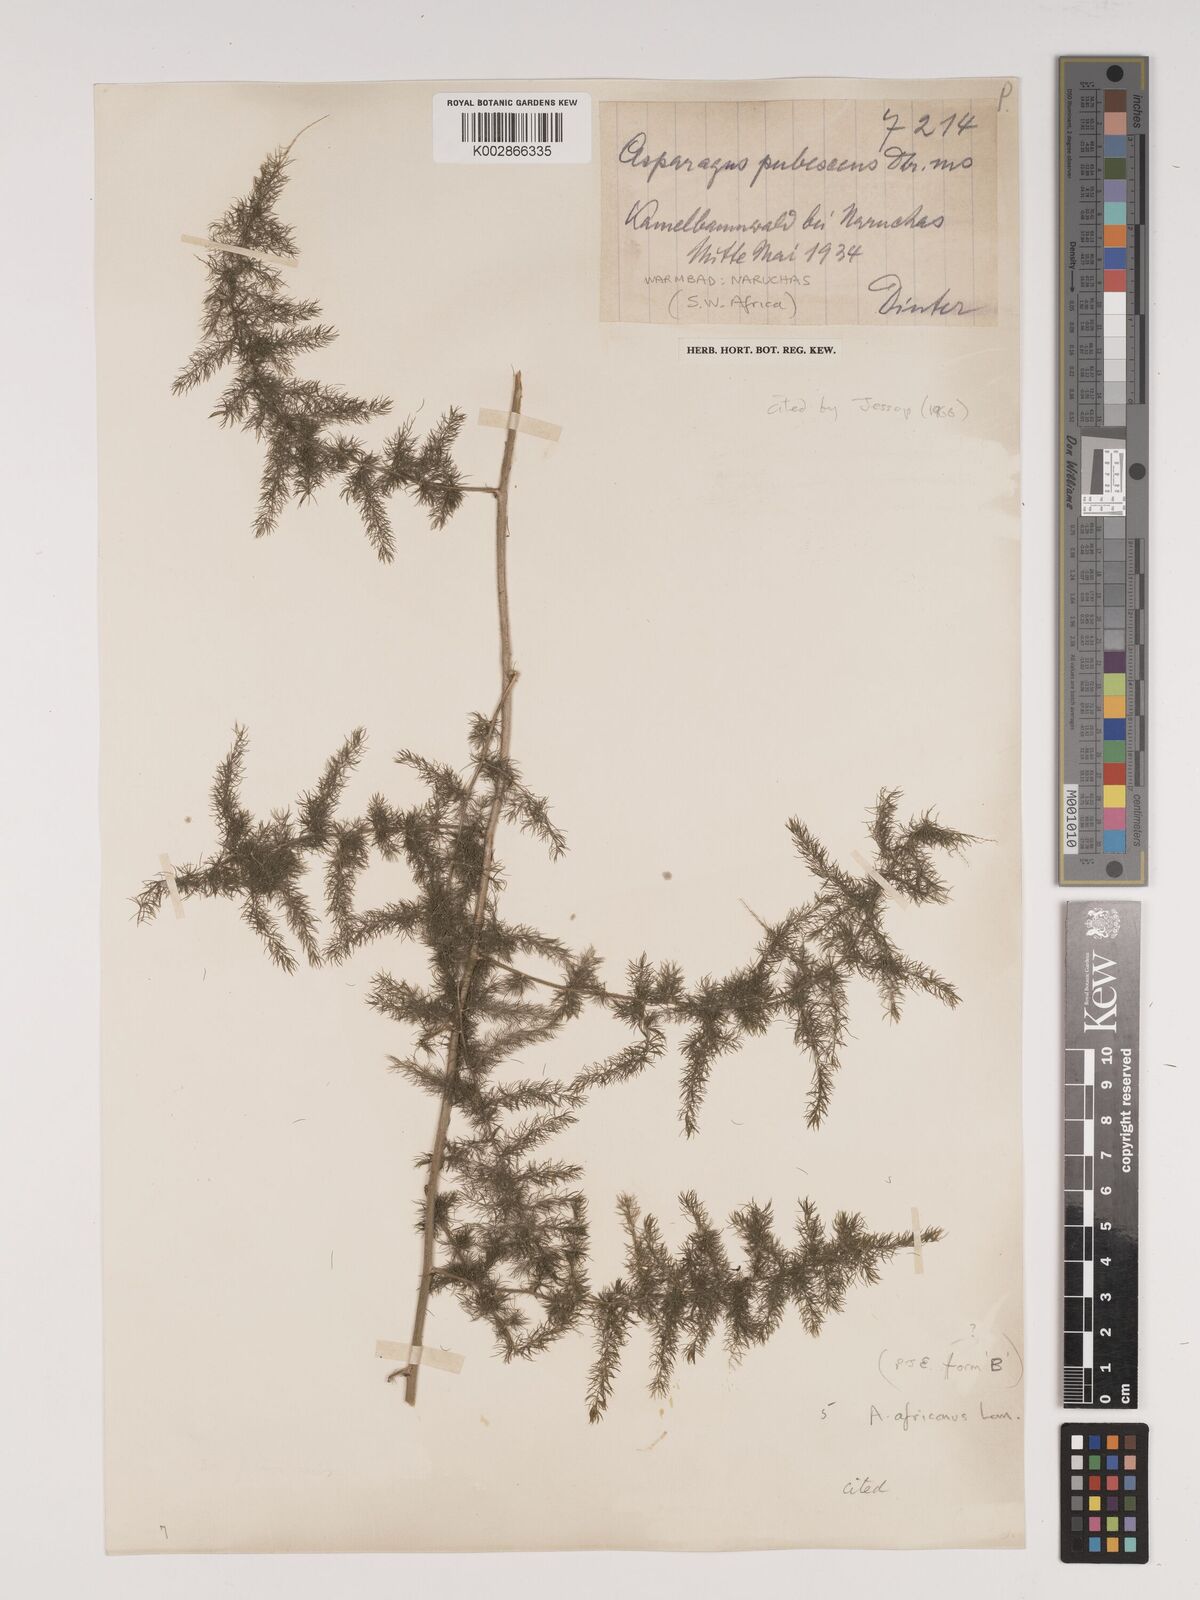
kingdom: Plantae
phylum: Tracheophyta
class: Liliopsida
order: Asparagales
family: Asparagaceae
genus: Asparagus
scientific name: Asparagus africanus
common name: Asparagus-fern
